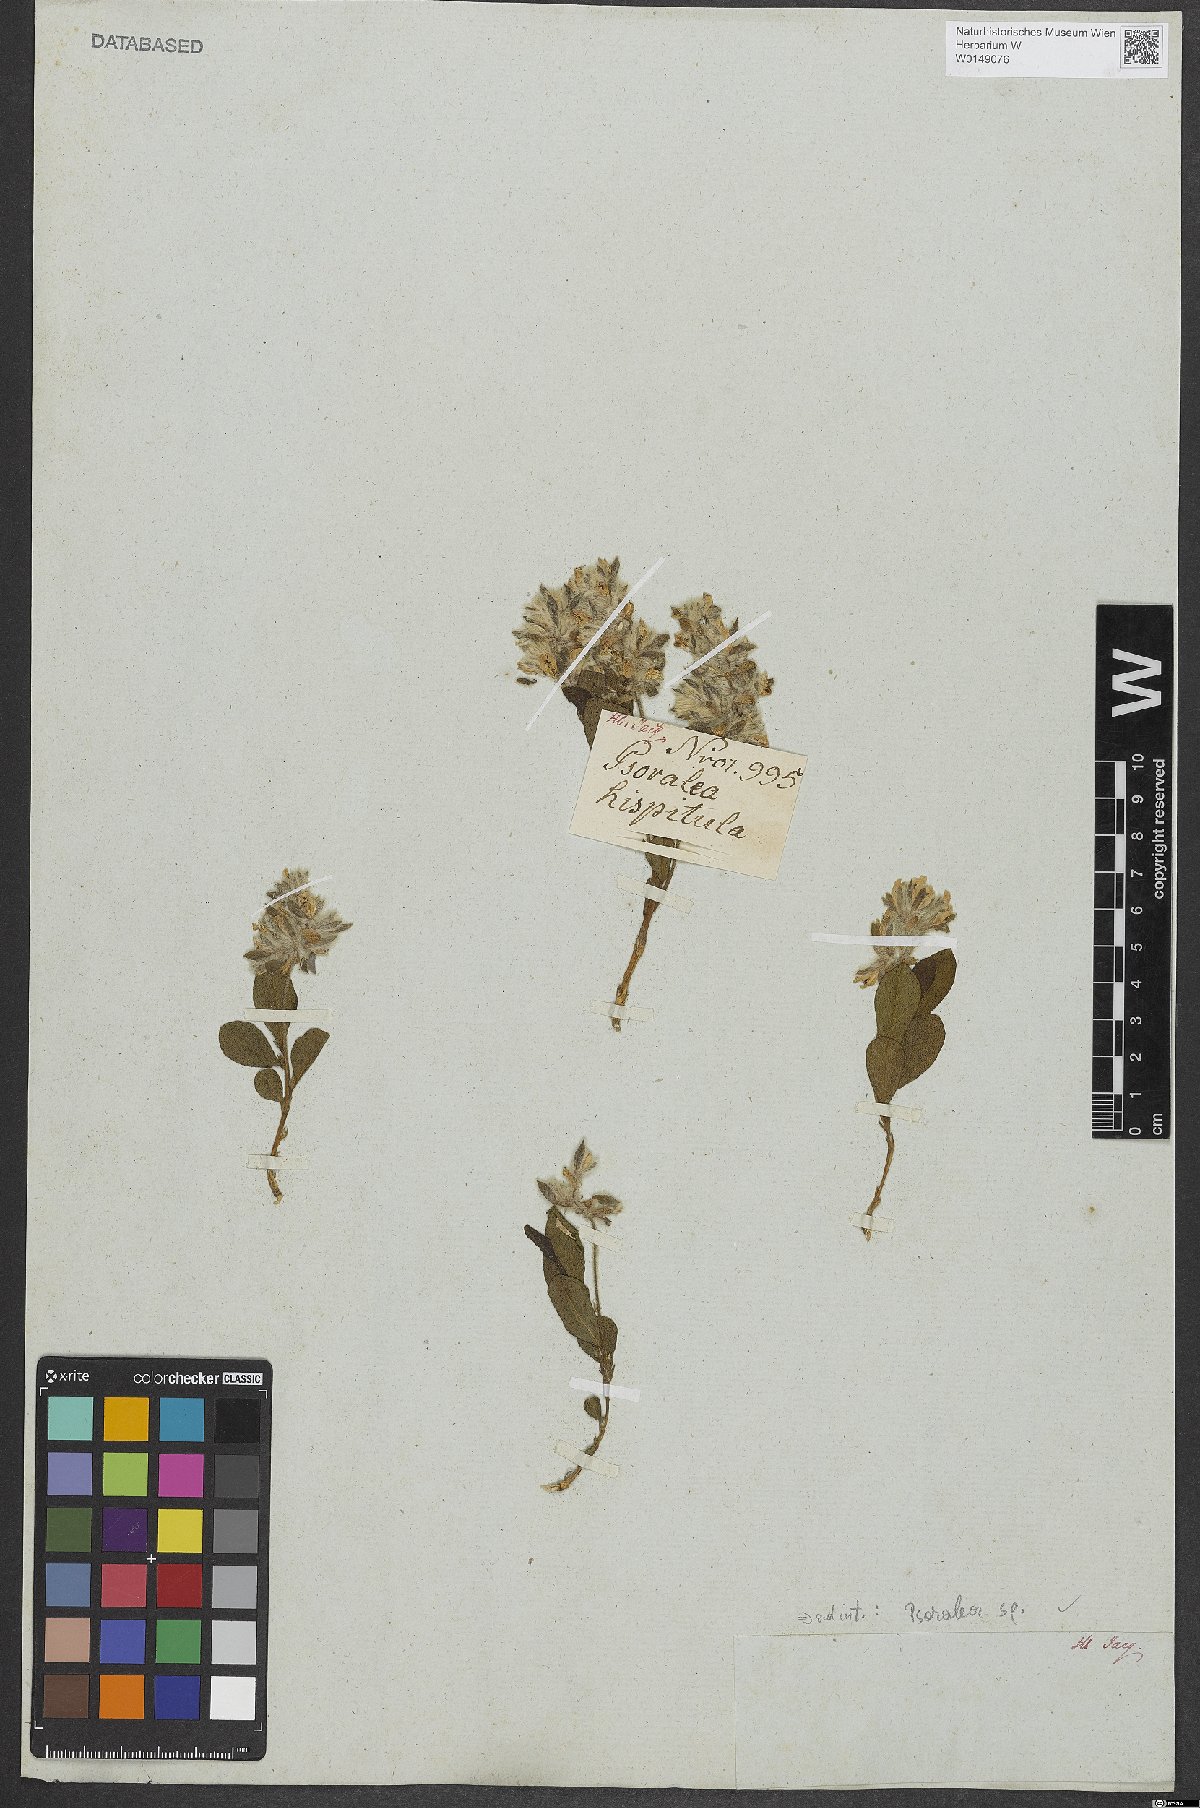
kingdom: Plantae
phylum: Tracheophyta
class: Magnoliopsida
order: Fabales
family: Fabaceae
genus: Psoralea
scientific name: Psoralea
